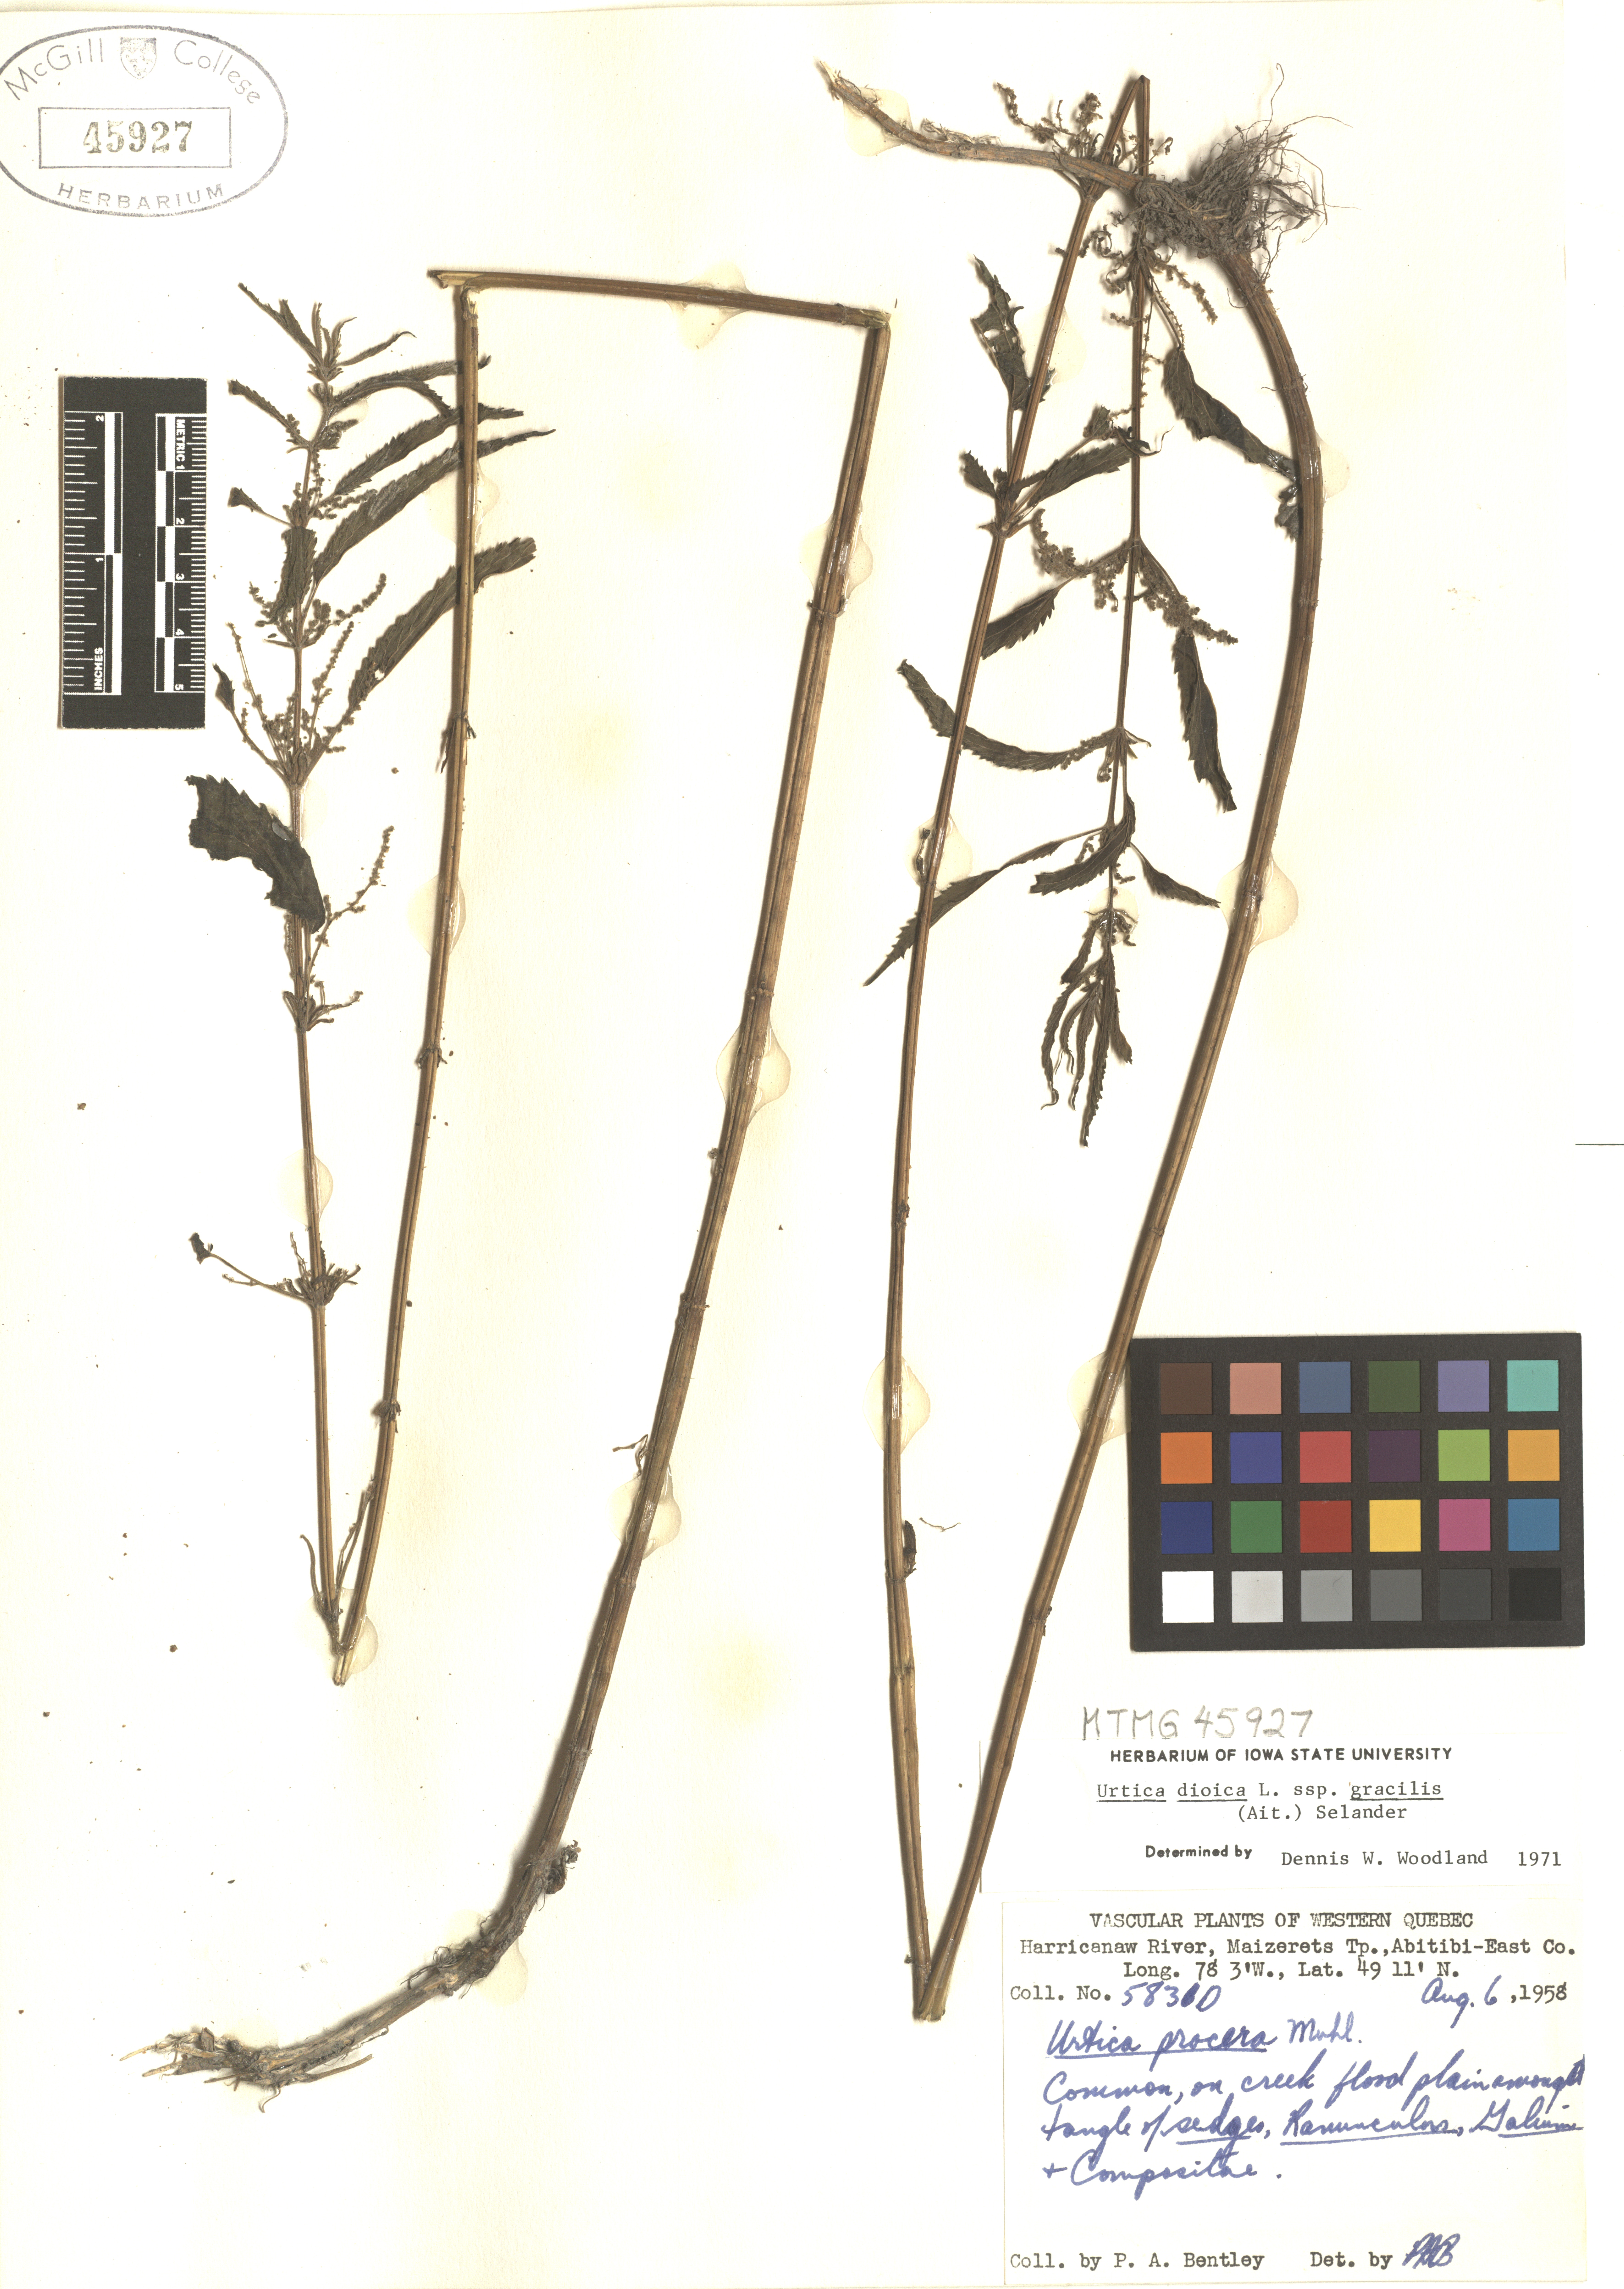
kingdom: Plantae
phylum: Tracheophyta
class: Magnoliopsida
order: Rosales
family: Urticaceae
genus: Urtica
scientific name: Urtica gracilis
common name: Slender stinging nettle
